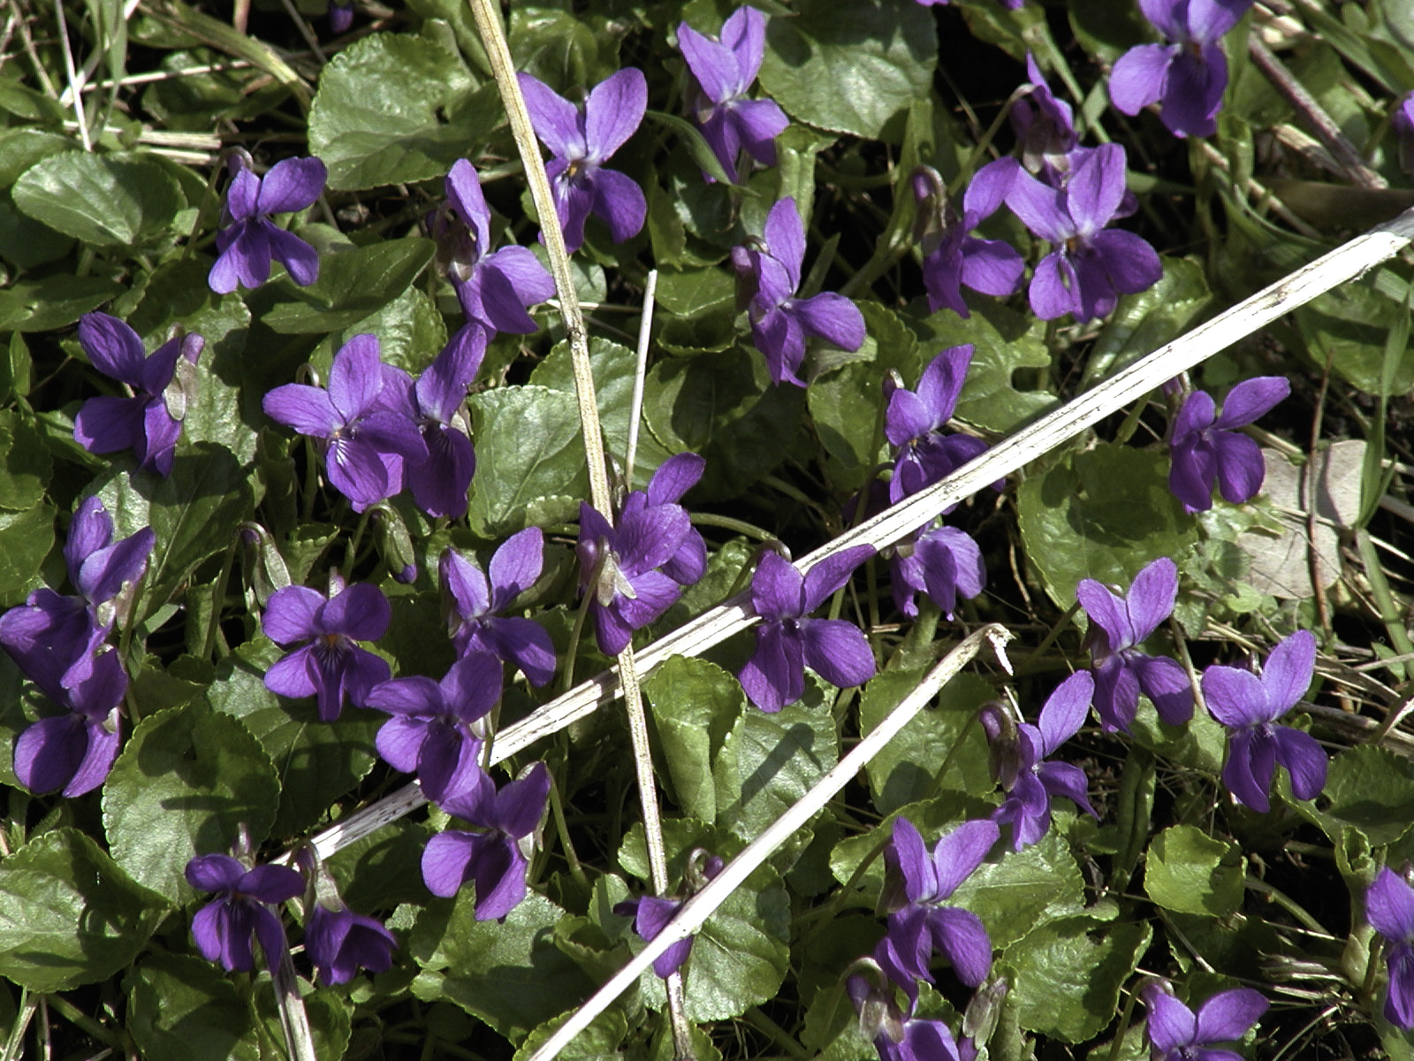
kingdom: Plantae
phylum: Tracheophyta
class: Magnoliopsida
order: Malpighiales
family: Violaceae
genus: Viola
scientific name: Viola odorata
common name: Sweet violet
